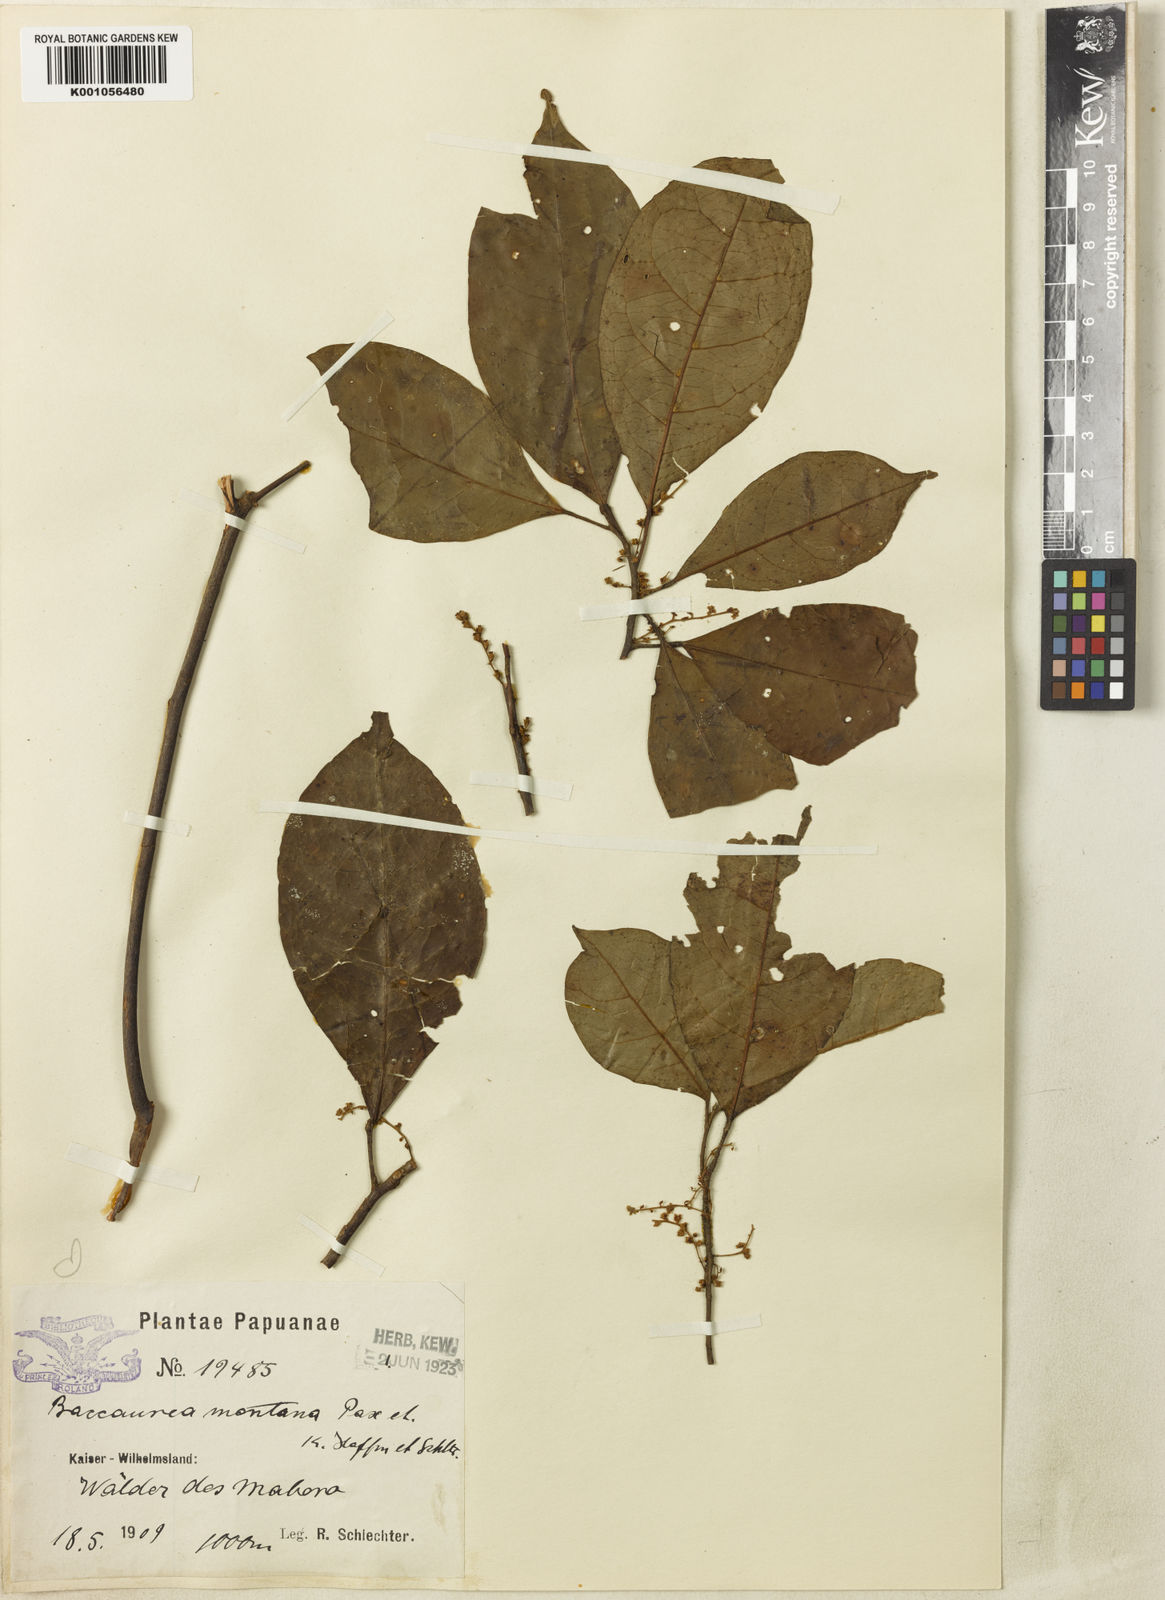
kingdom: Plantae
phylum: Tracheophyta
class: Magnoliopsida
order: Malpighiales
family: Phyllanthaceae
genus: Baccaurea
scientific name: Baccaurea papuana
